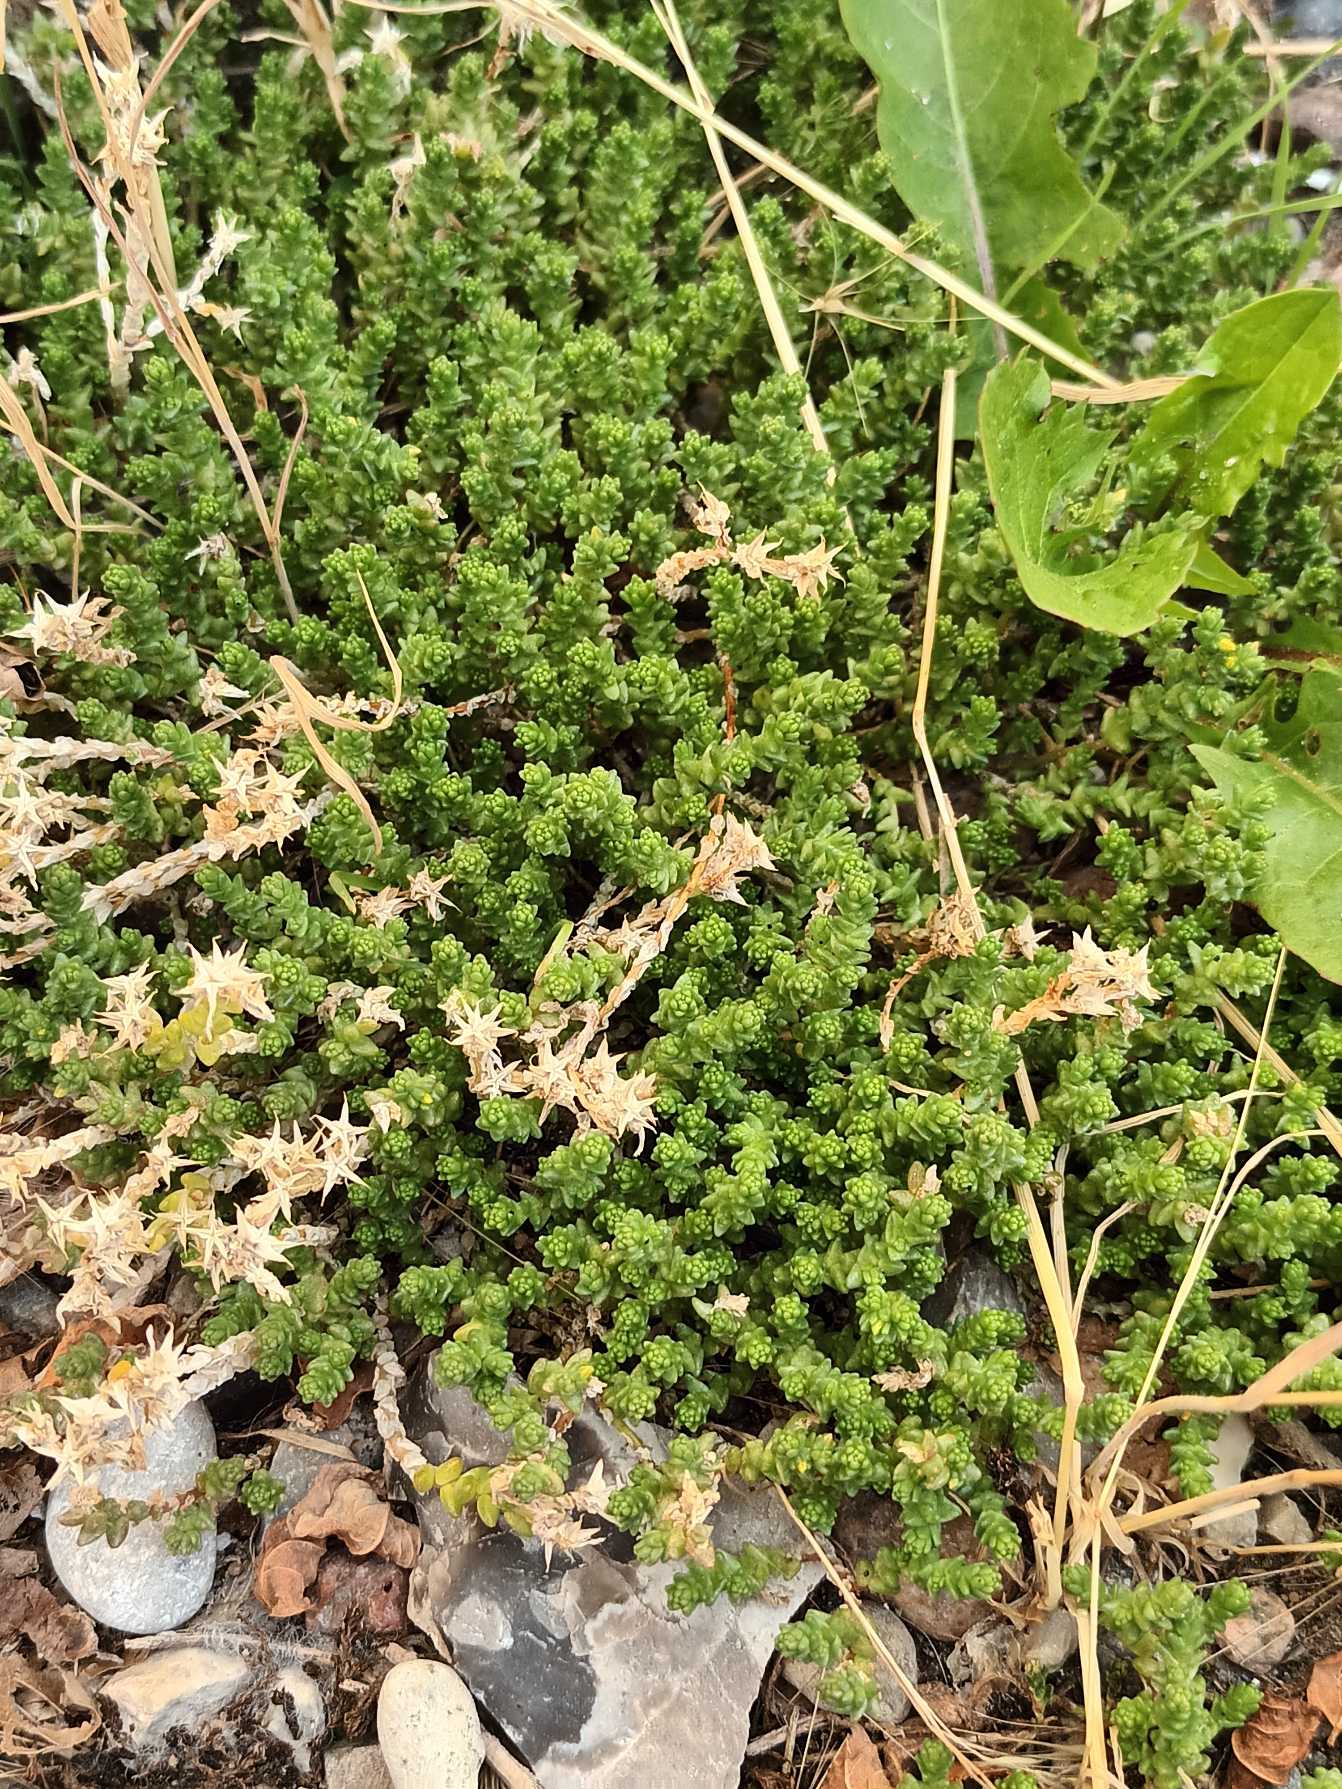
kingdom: Plantae
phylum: Tracheophyta
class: Magnoliopsida
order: Saxifragales
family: Crassulaceae
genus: Sedum
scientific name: Sedum acre
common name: Bidende stenurt
